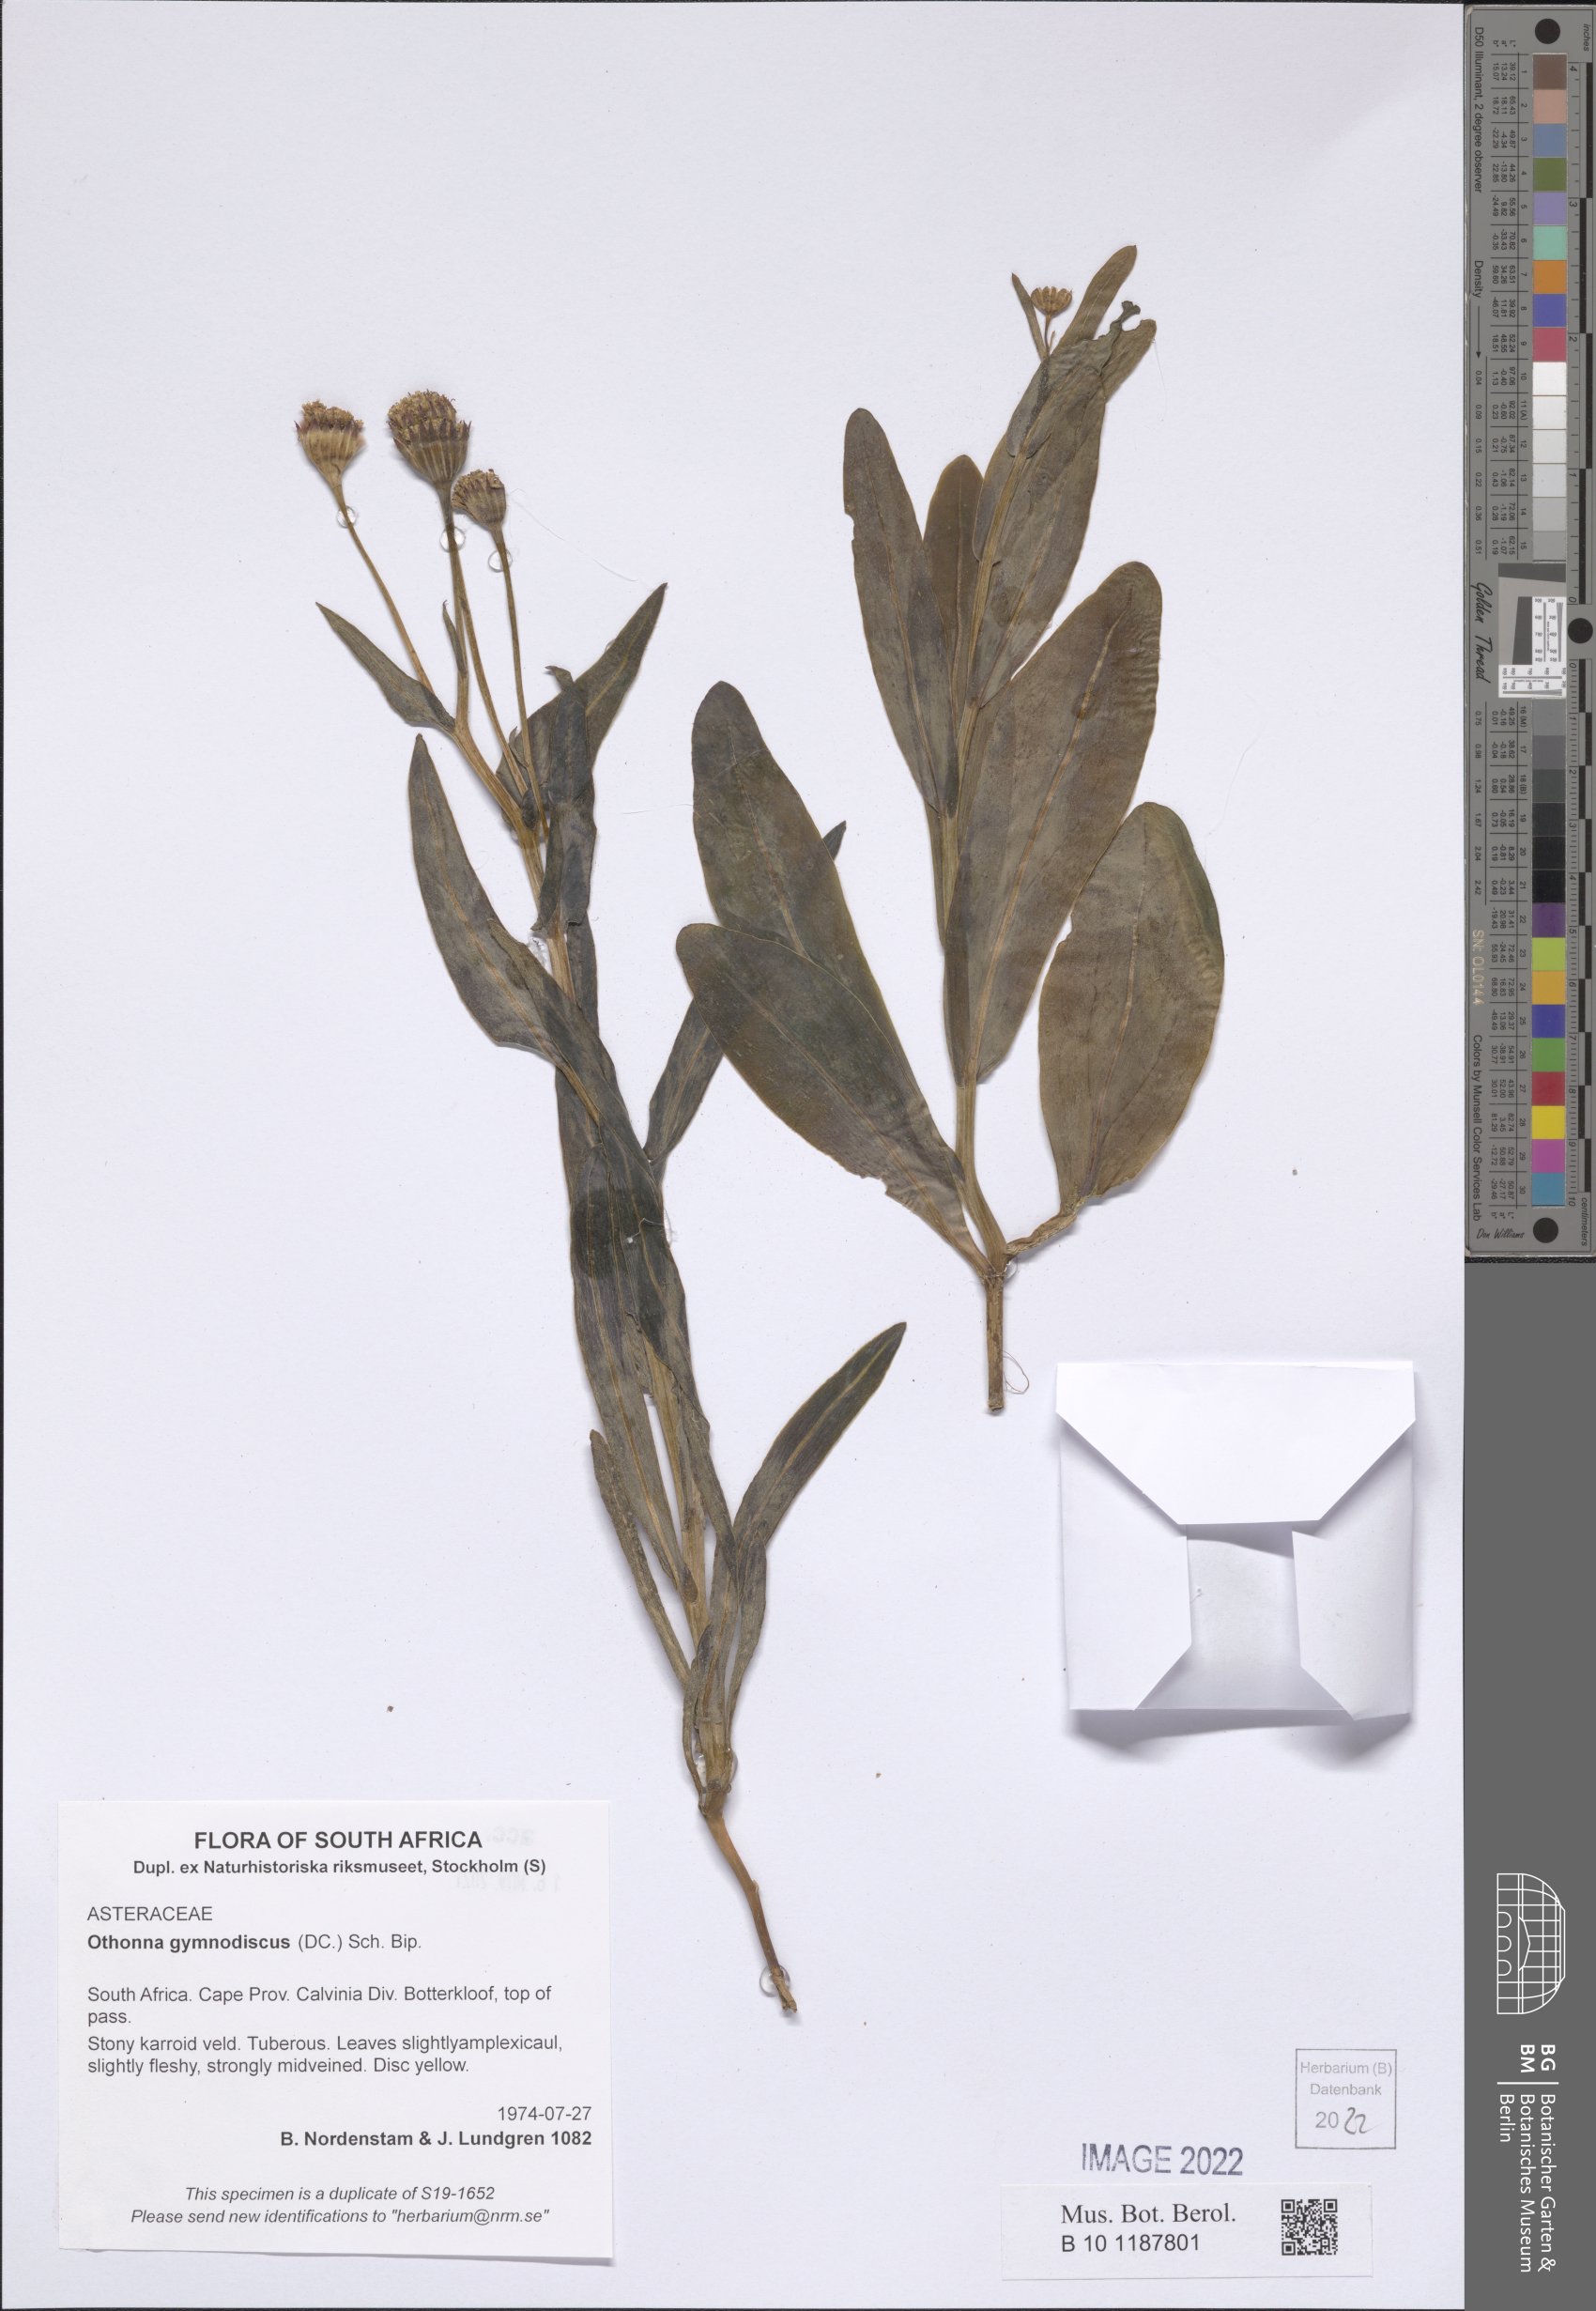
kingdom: Plantae
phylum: Tracheophyta
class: Magnoliopsida
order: Asterales
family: Asteraceae
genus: Othonna
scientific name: Othonna gymnodiscus
